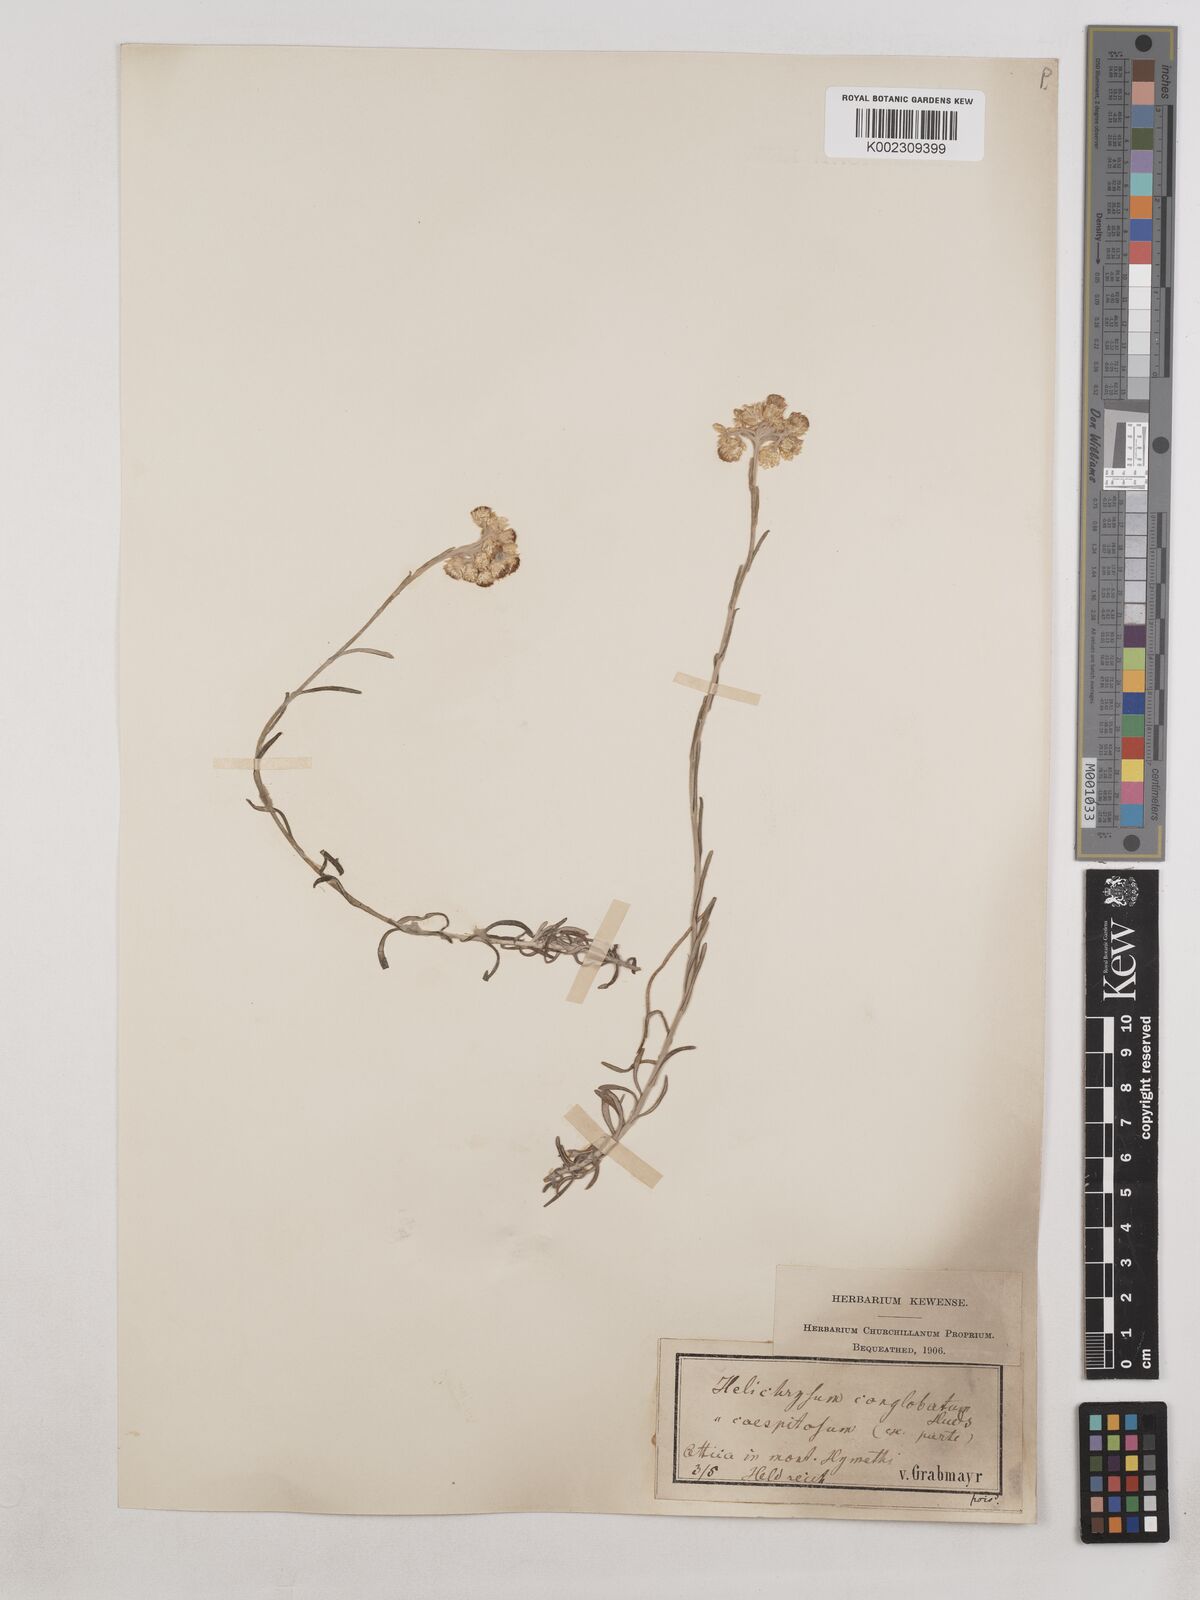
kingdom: Plantae
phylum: Tracheophyta
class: Magnoliopsida
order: Asterales
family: Asteraceae
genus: Helichrysum
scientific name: Helichrysum stoechas
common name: Goldilocks
